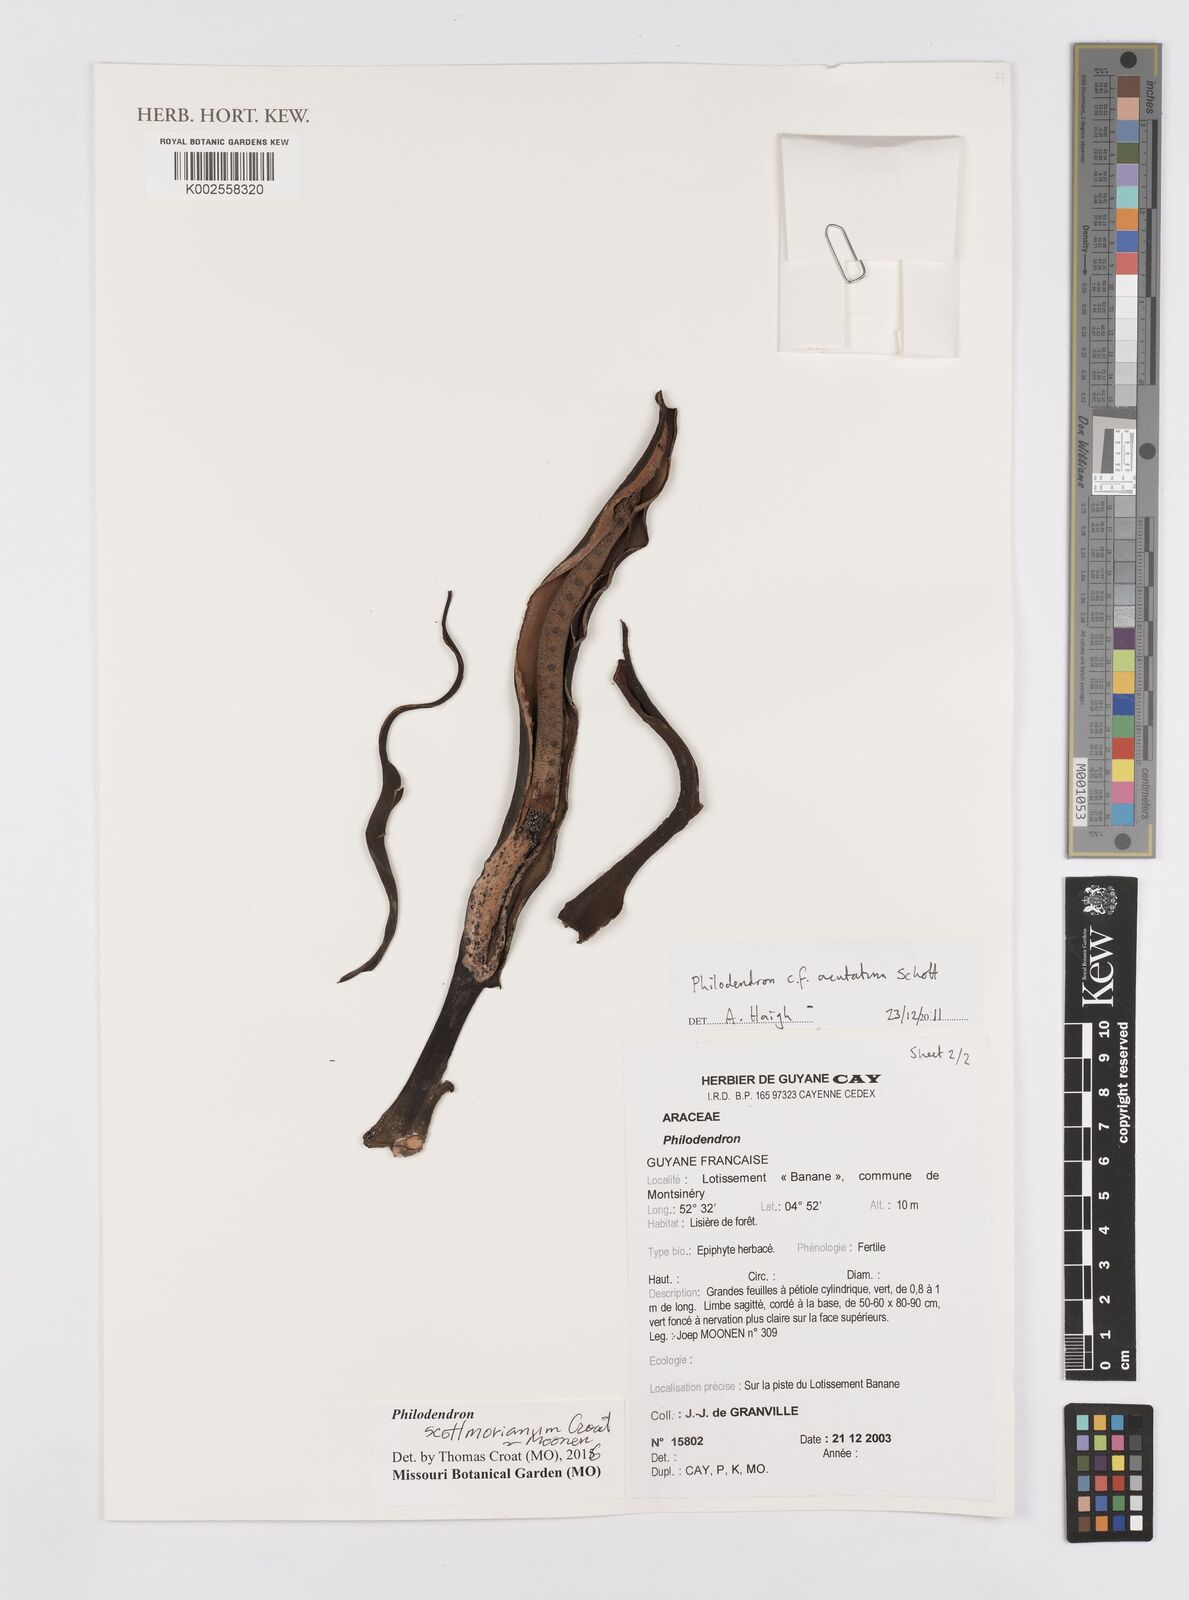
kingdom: Plantae
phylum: Tracheophyta
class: Liliopsida
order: Alismatales
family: Araceae
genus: Philodendron
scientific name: Philodendron scottmorianum
